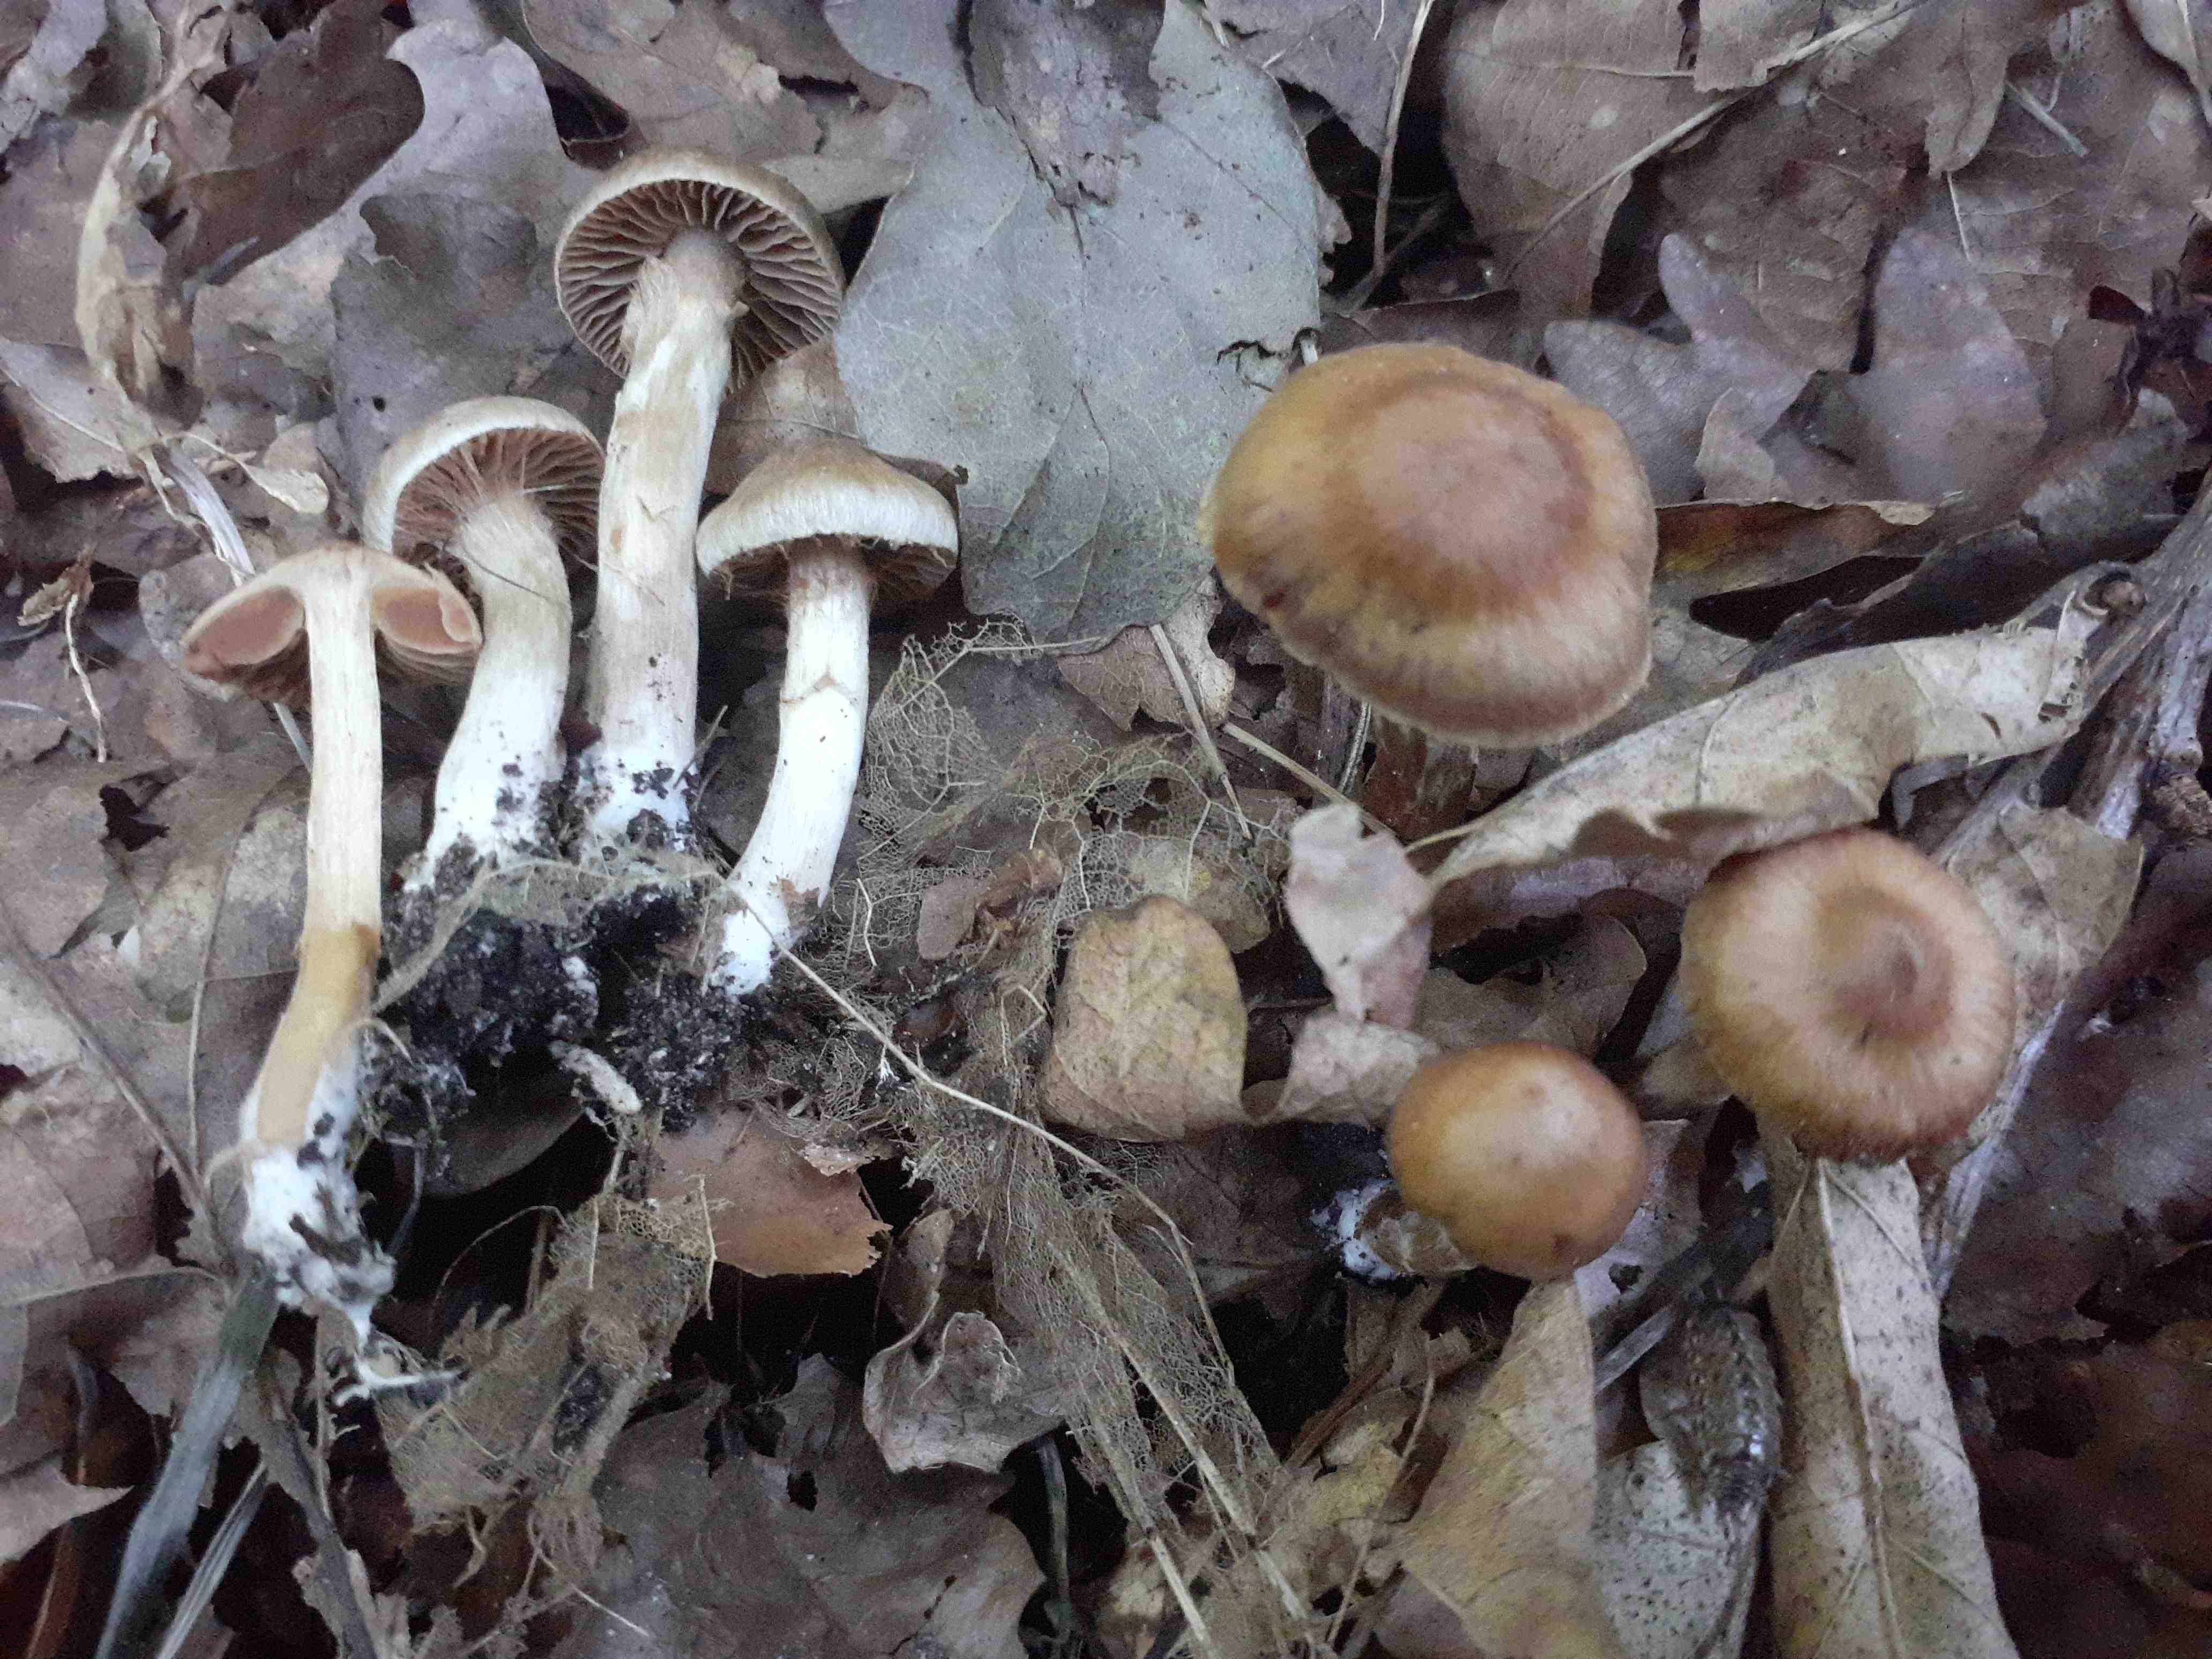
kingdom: Fungi
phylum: Basidiomycota
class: Agaricomycetes
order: Agaricales
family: Cortinariaceae
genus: Cortinarius
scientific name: Cortinarius punctatiformis
